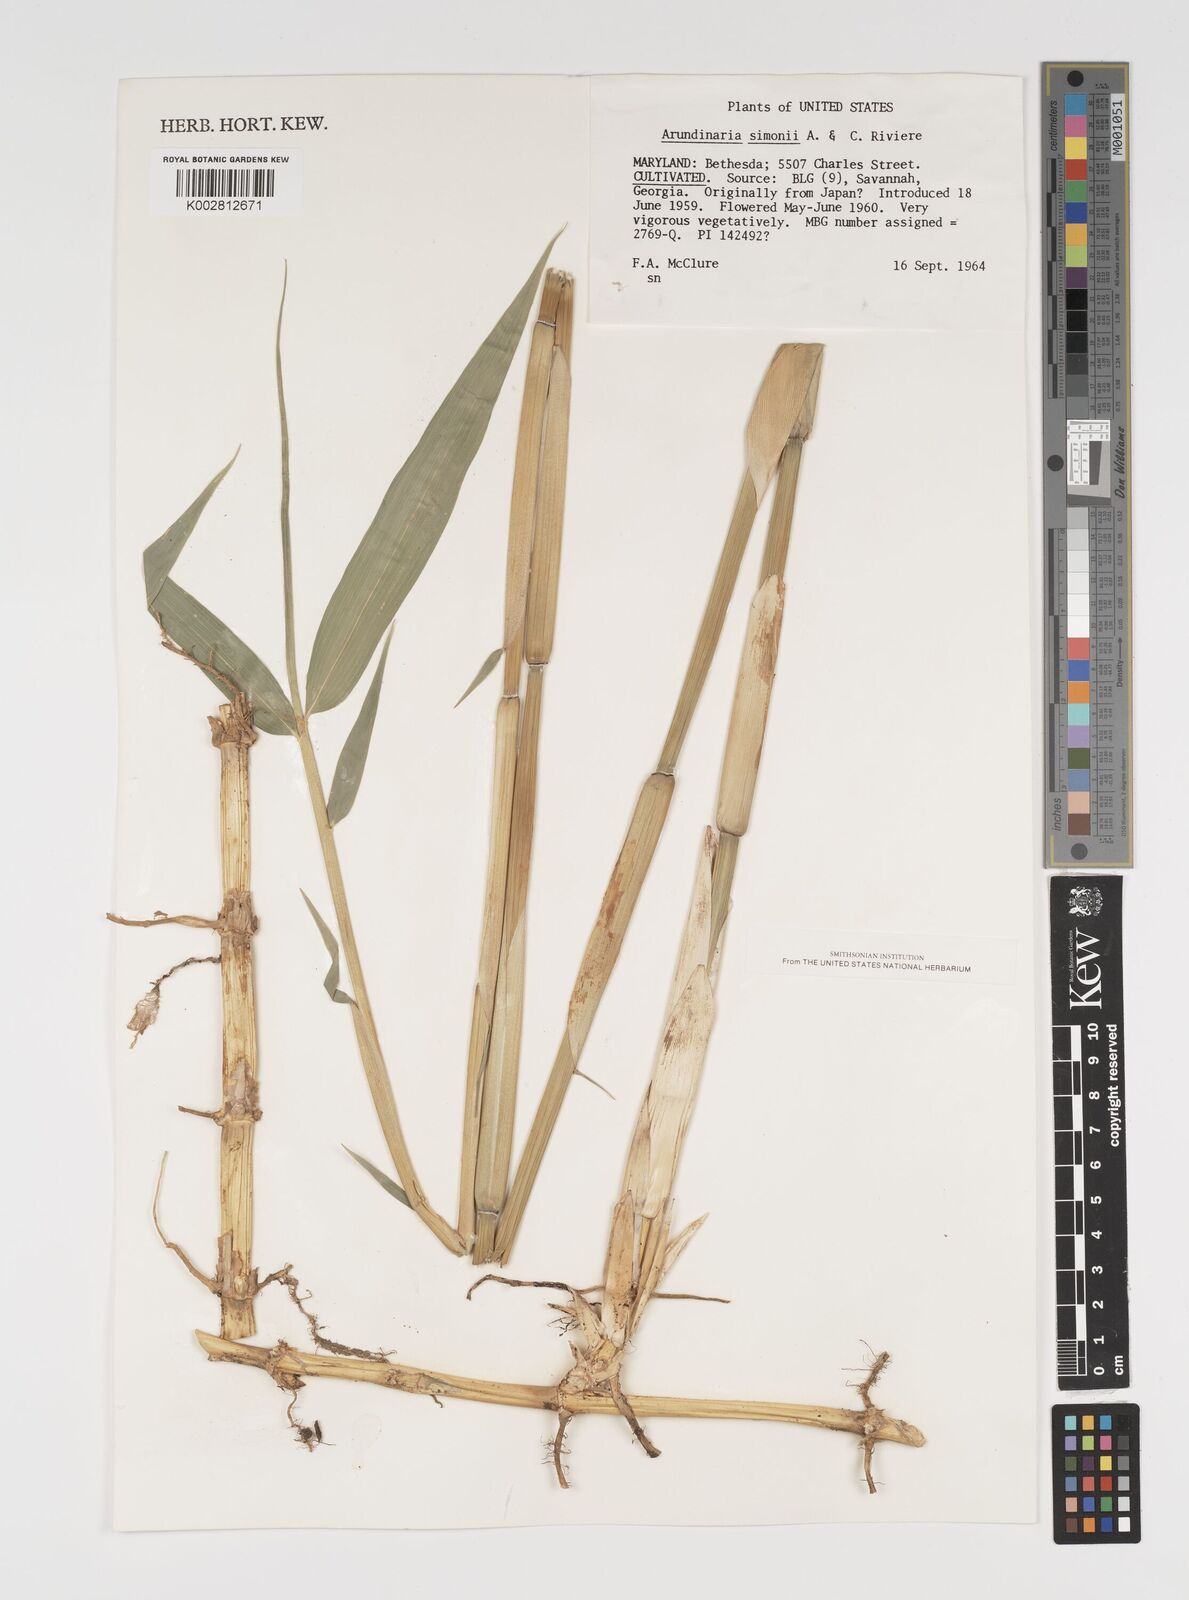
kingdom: Plantae
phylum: Tracheophyta
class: Liliopsida
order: Poales
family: Poaceae
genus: Pleioblastus
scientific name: Pleioblastus simonii
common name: Simon bamboo
